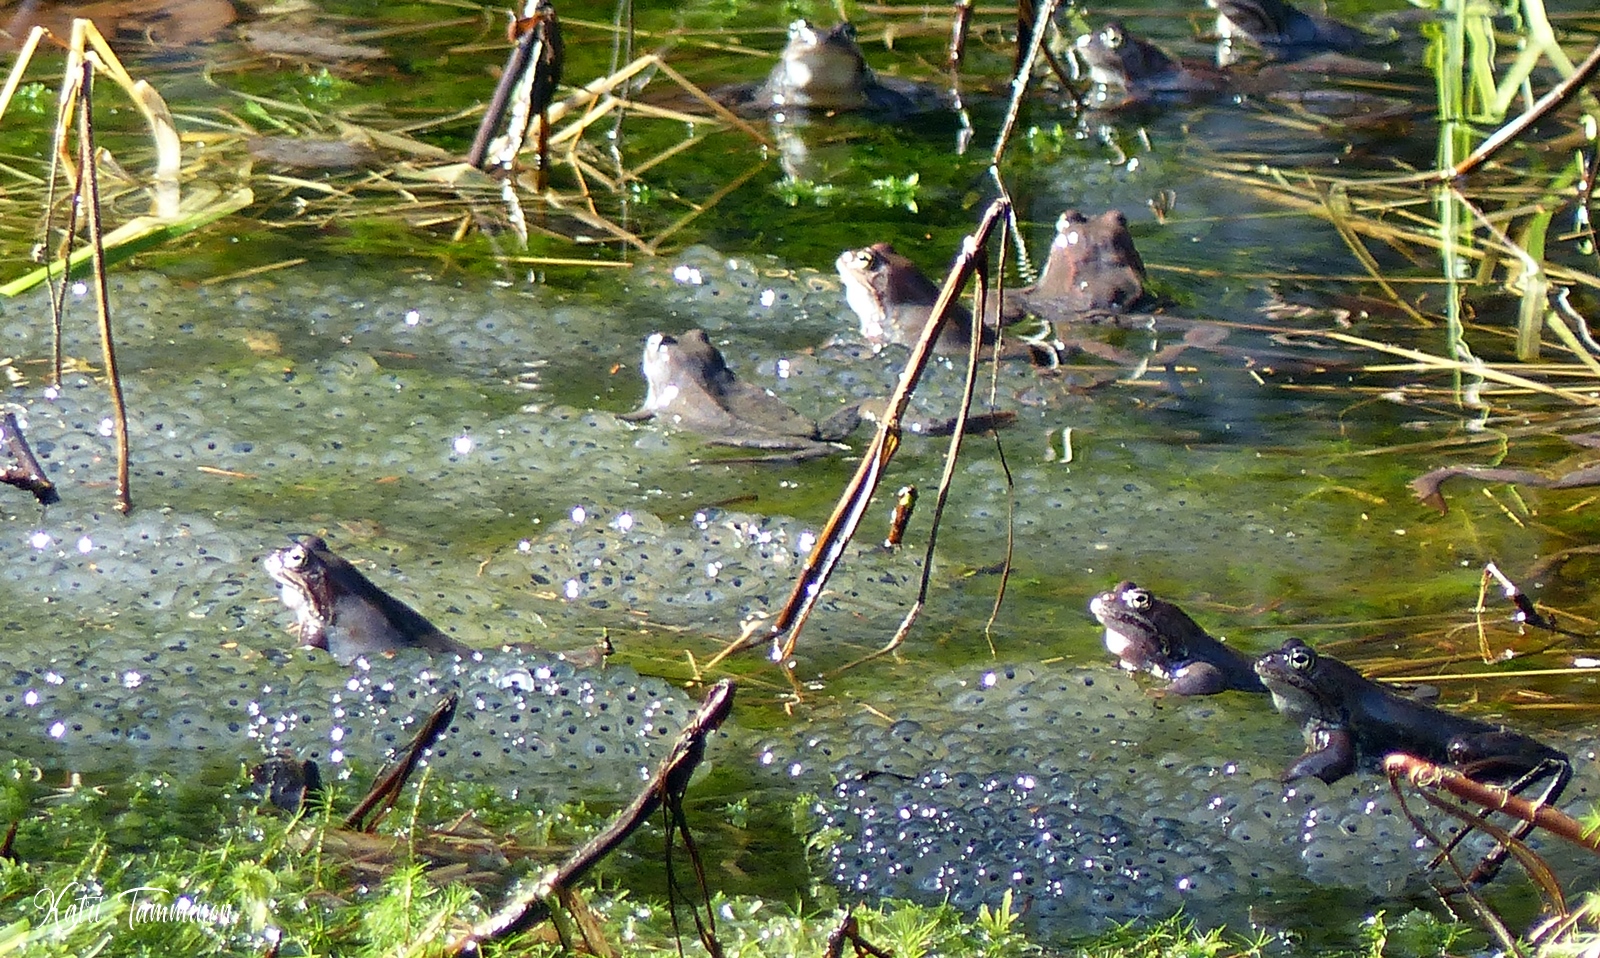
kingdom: Animalia
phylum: Chordata
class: Amphibia
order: Anura
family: Ranidae
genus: Rana
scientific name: Rana temporaria
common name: Common frog
